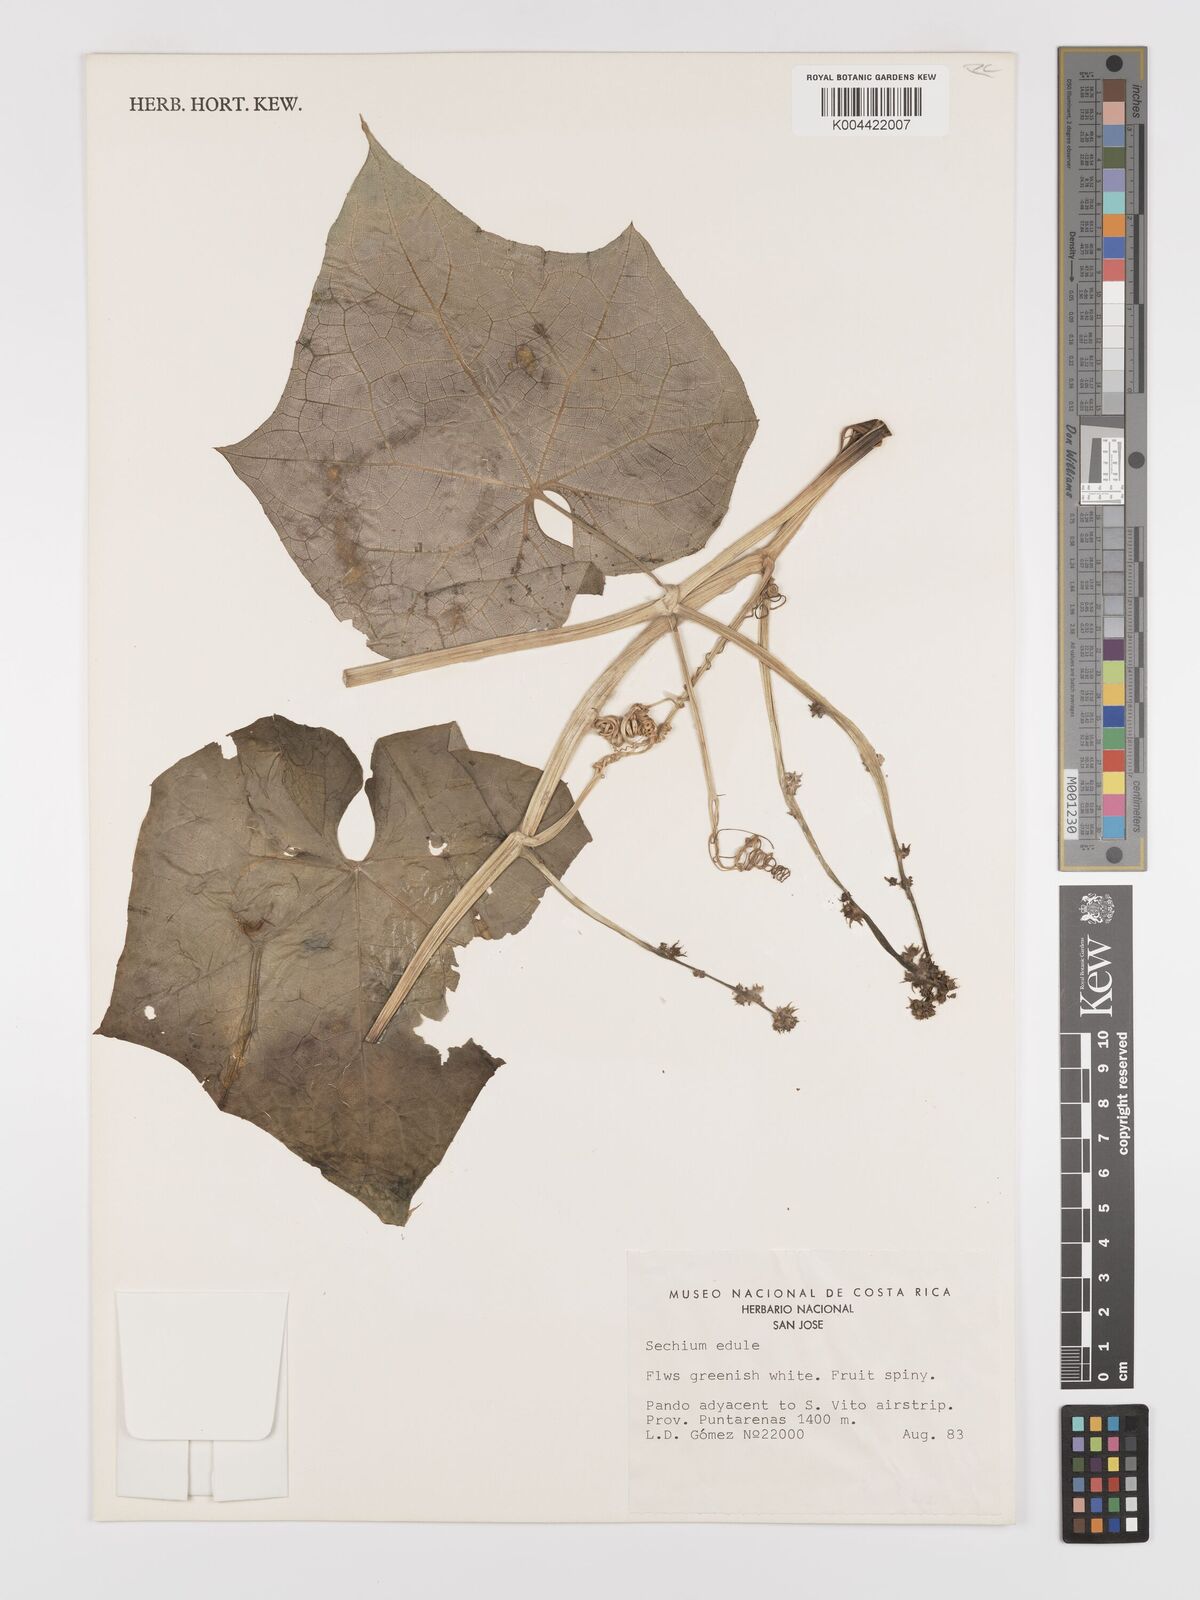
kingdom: Plantae
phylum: Tracheophyta
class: Magnoliopsida
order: Cucurbitales
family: Cucurbitaceae
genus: Sechium
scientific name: Sechium edule
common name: Chayote
